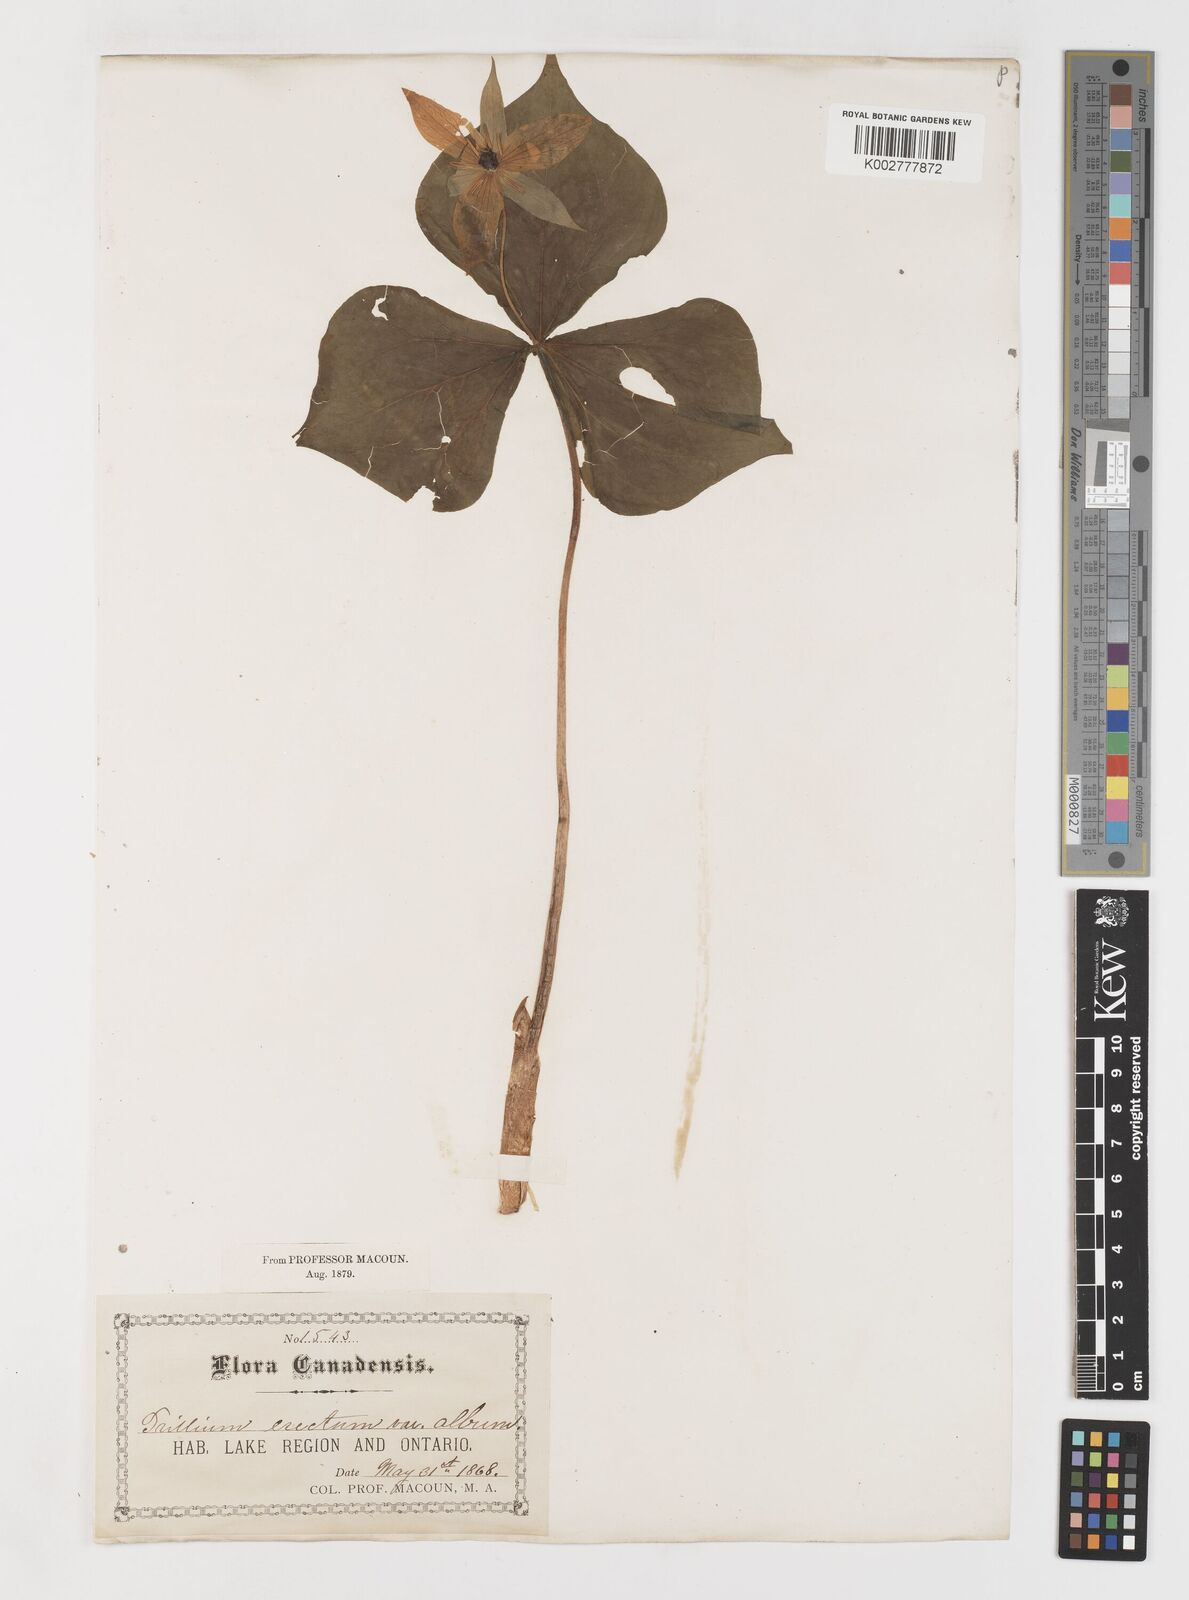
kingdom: Plantae
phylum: Tracheophyta
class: Liliopsida
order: Liliales
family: Melanthiaceae
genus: Trillium
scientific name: Trillium erectum
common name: Purple trillium
